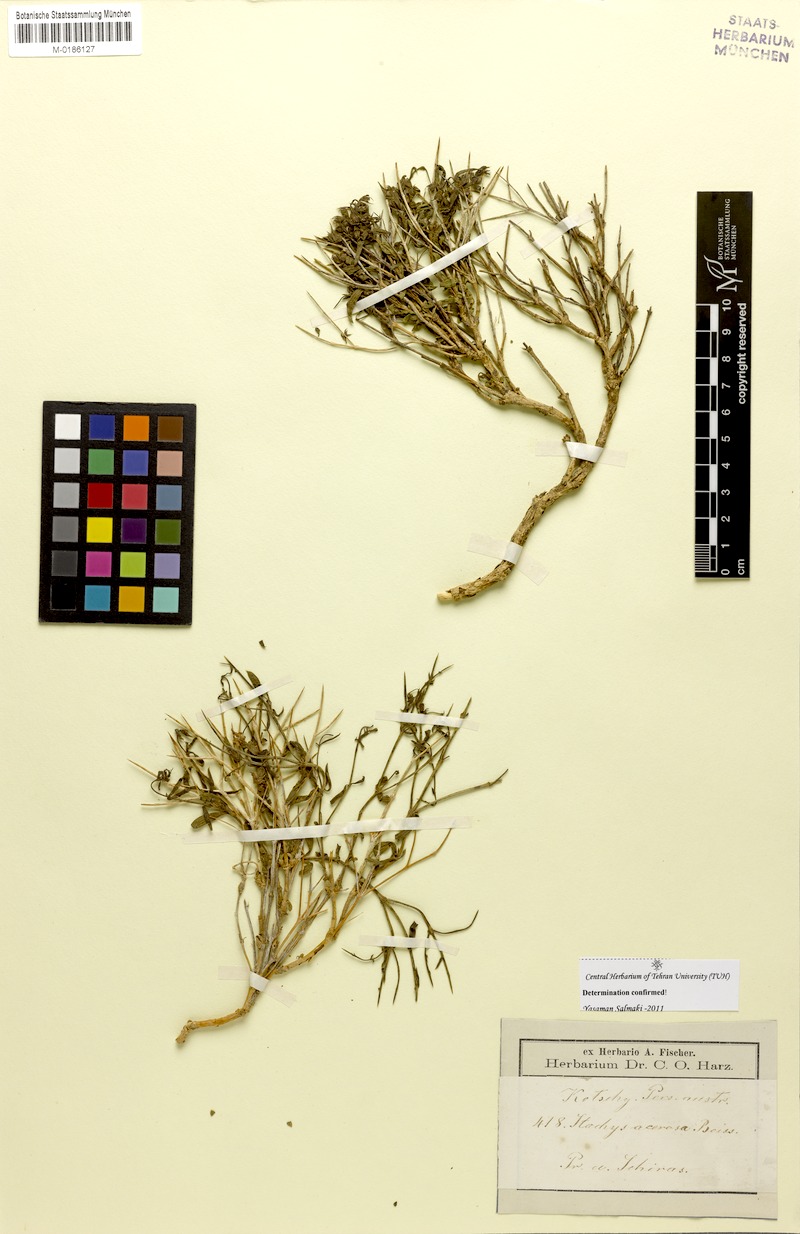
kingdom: Plantae
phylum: Tracheophyta
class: Magnoliopsida
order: Lamiales
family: Lamiaceae
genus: Stachys
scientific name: Stachys acerosa
